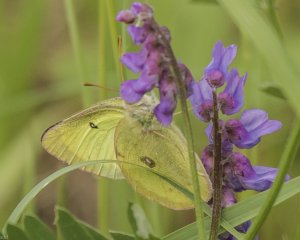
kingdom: Animalia
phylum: Arthropoda
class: Insecta
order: Lepidoptera
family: Pieridae
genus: Colias
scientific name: Colias philodice
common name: Clouded Sulphur
